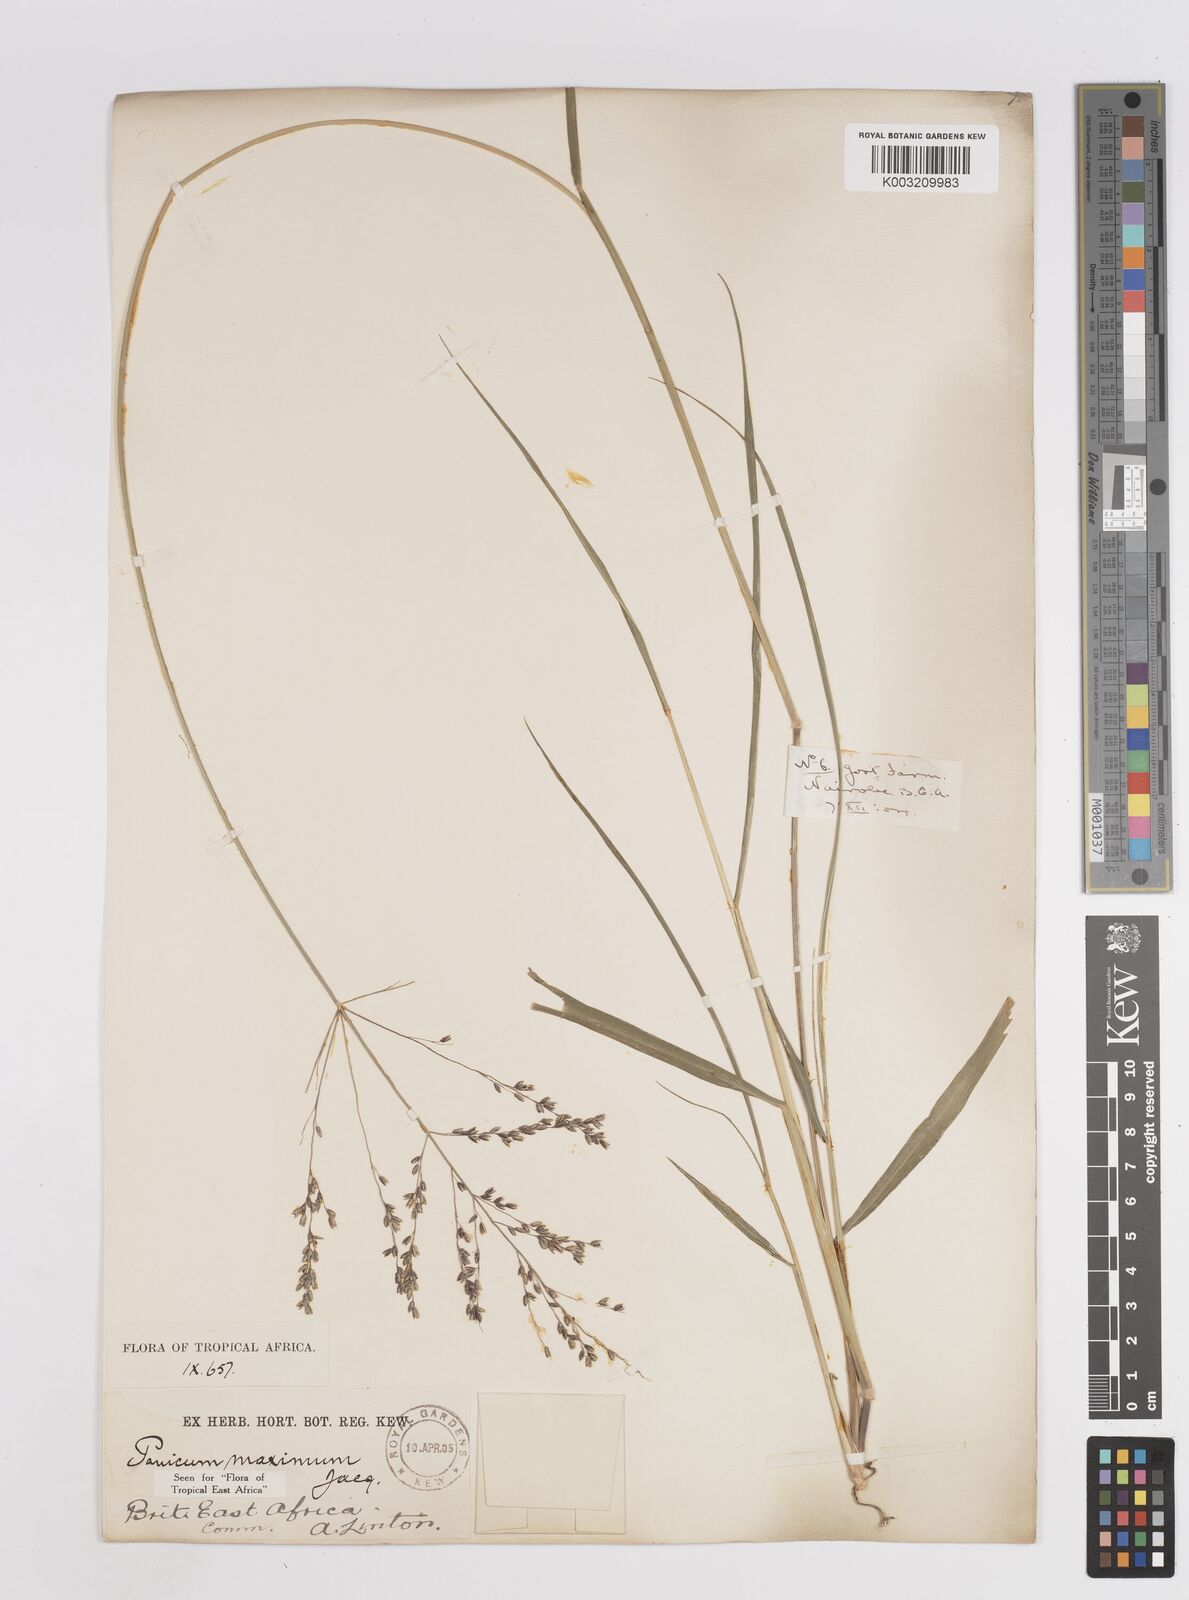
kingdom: Plantae
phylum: Tracheophyta
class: Liliopsida
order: Poales
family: Poaceae
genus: Megathyrsus
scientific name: Megathyrsus maximus
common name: Guineagrass
